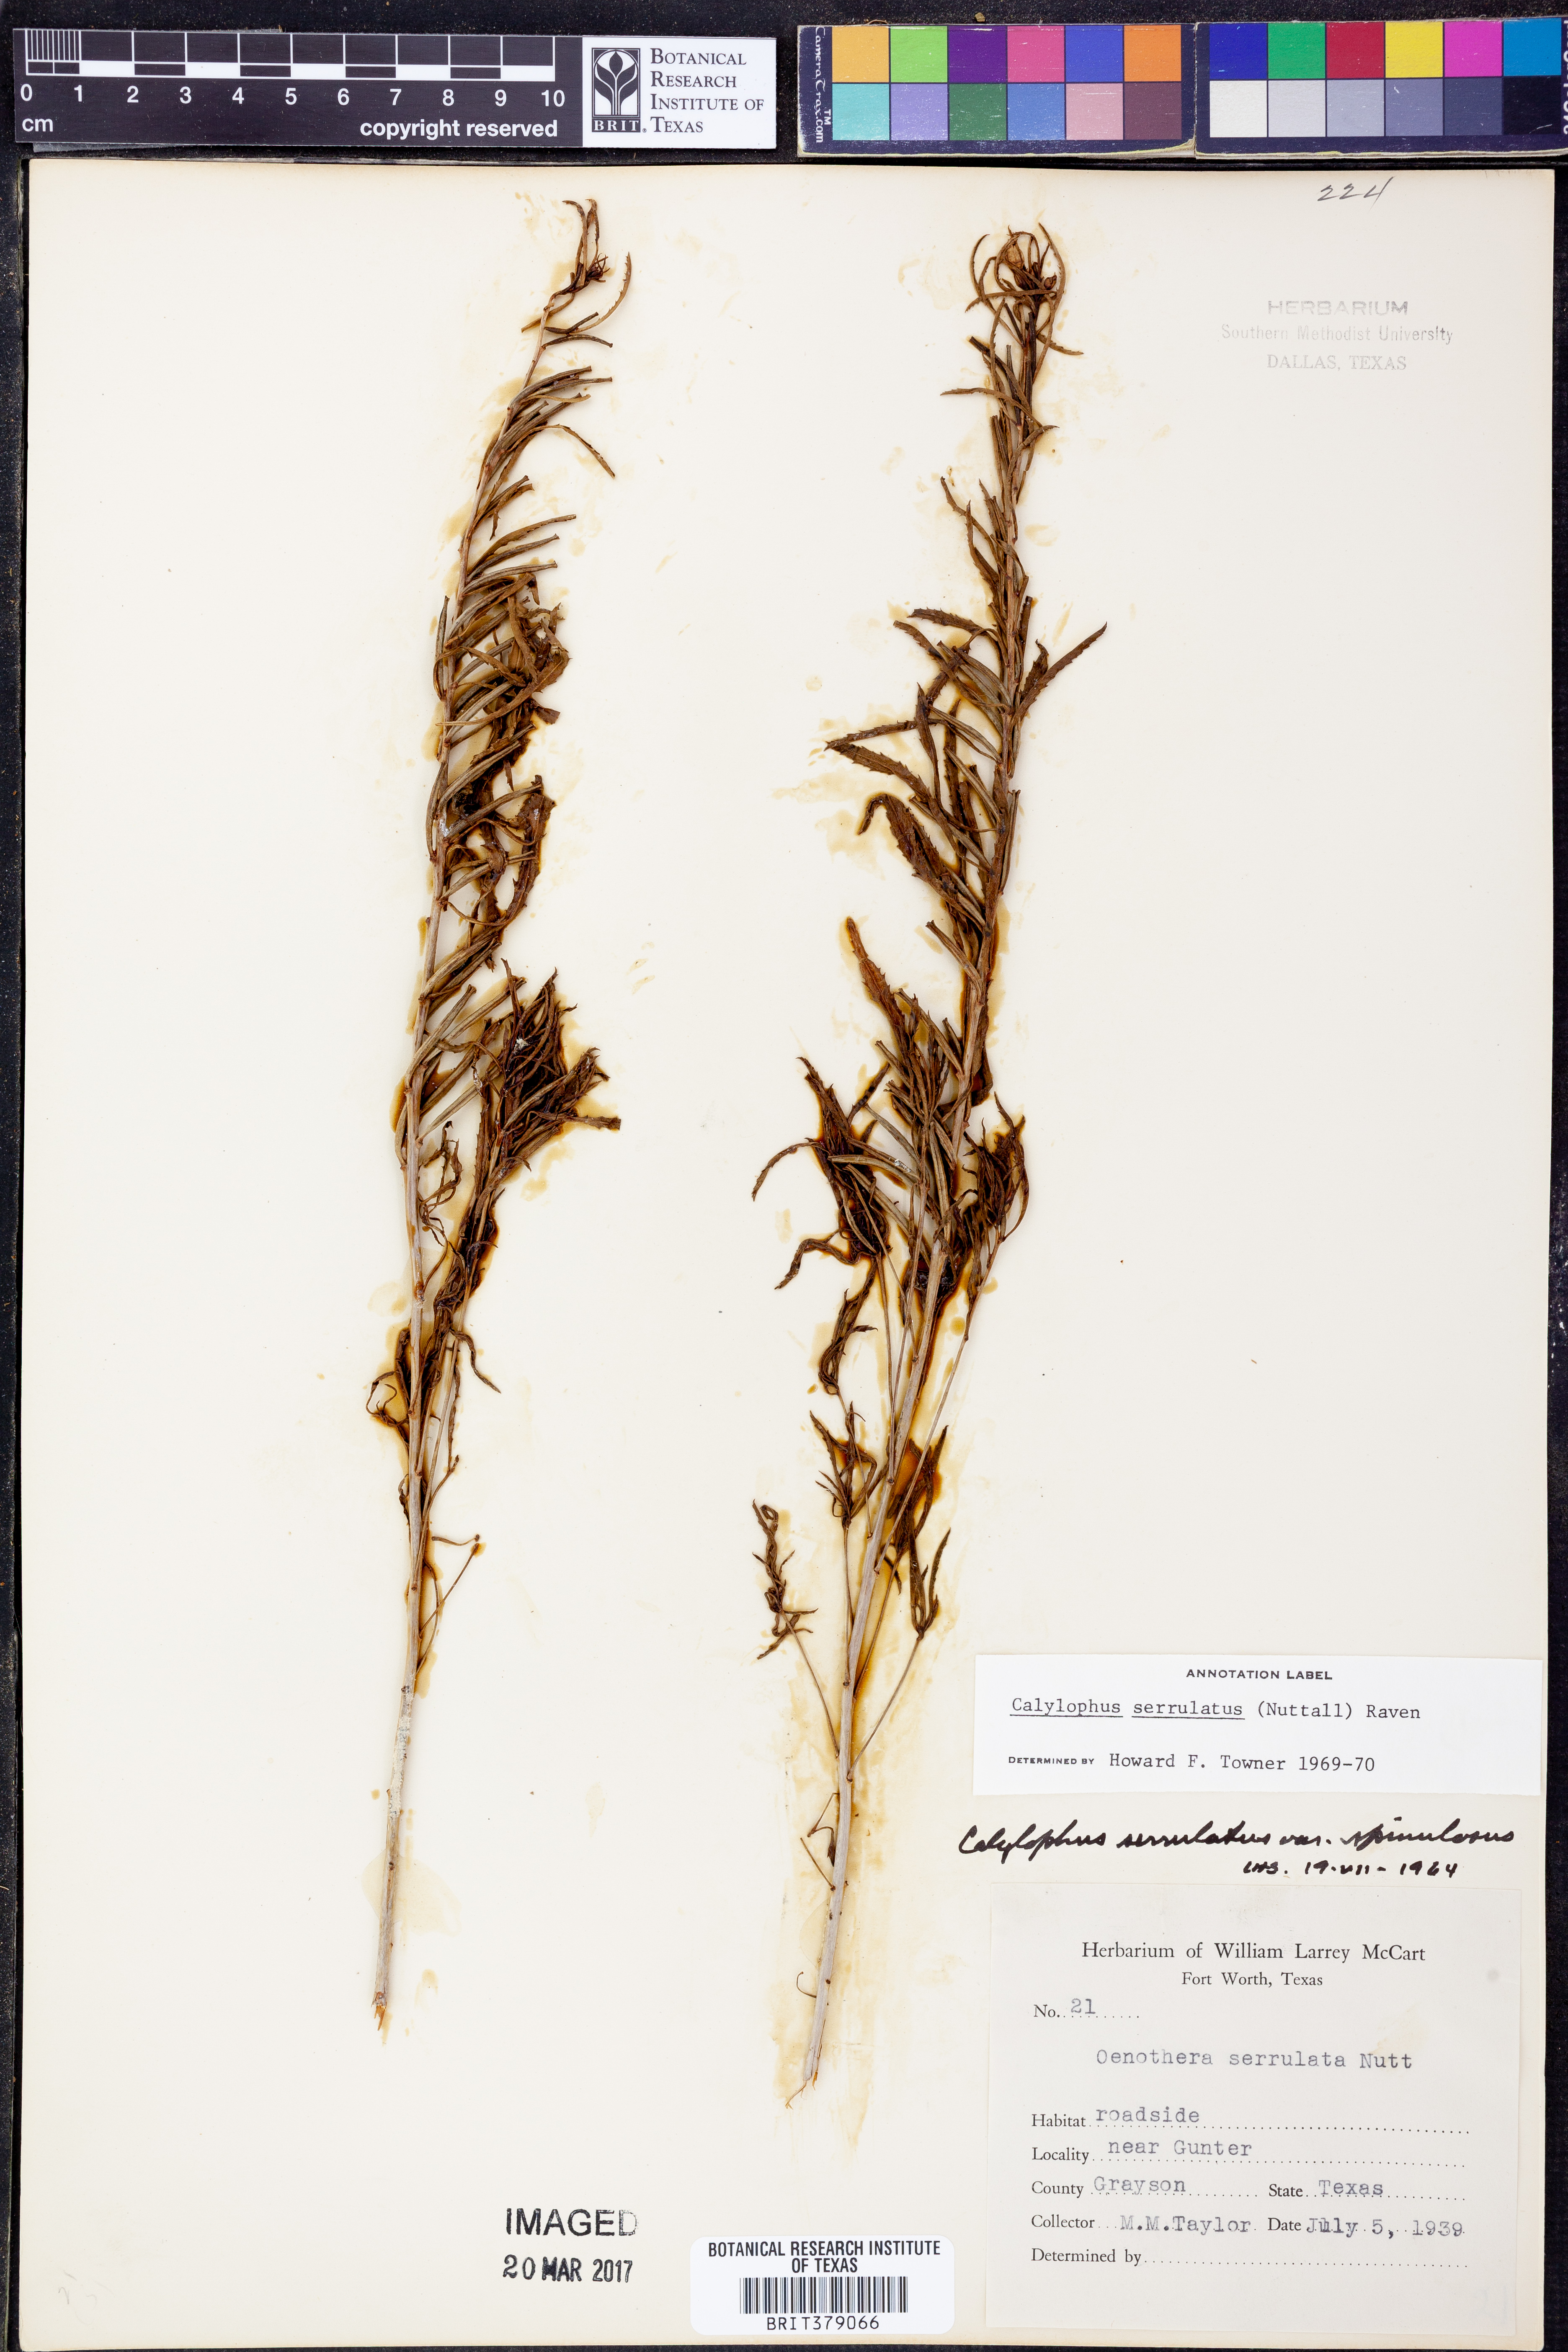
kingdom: Plantae
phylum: Tracheophyta
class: Magnoliopsida
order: Myrtales
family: Onagraceae
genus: Oenothera
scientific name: Oenothera serrulata
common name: Half-shrub calylophus
